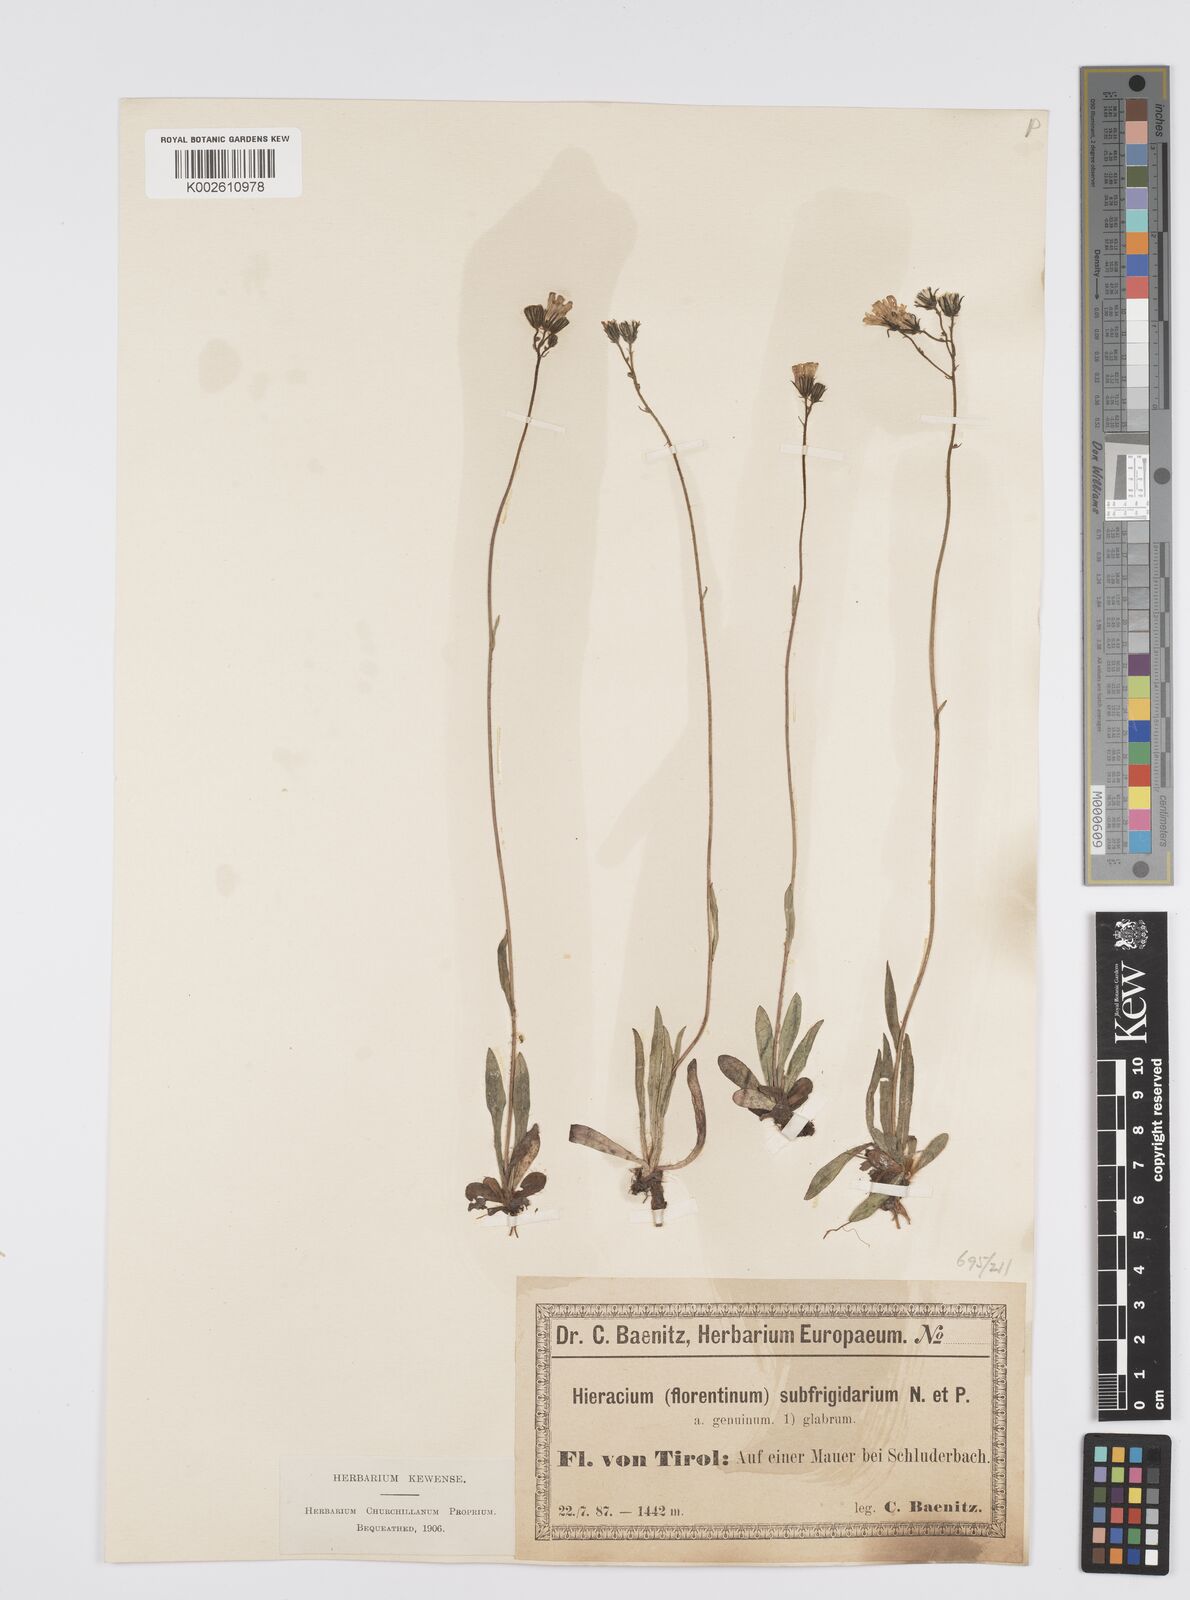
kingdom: Plantae
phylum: Tracheophyta
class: Magnoliopsida
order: Asterales
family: Asteraceae
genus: Pilosella
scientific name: Pilosella piloselloides
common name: Glaucous king-devil
